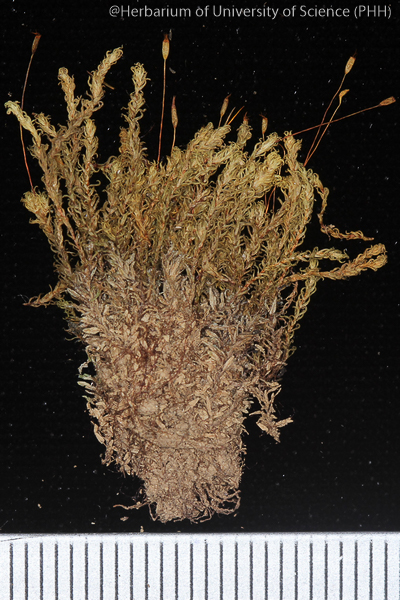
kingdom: Plantae
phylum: Bryophyta
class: Bryopsida
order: Pottiales
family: Pottiaceae
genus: Hydrogonium
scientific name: Hydrogonium consanguineum
